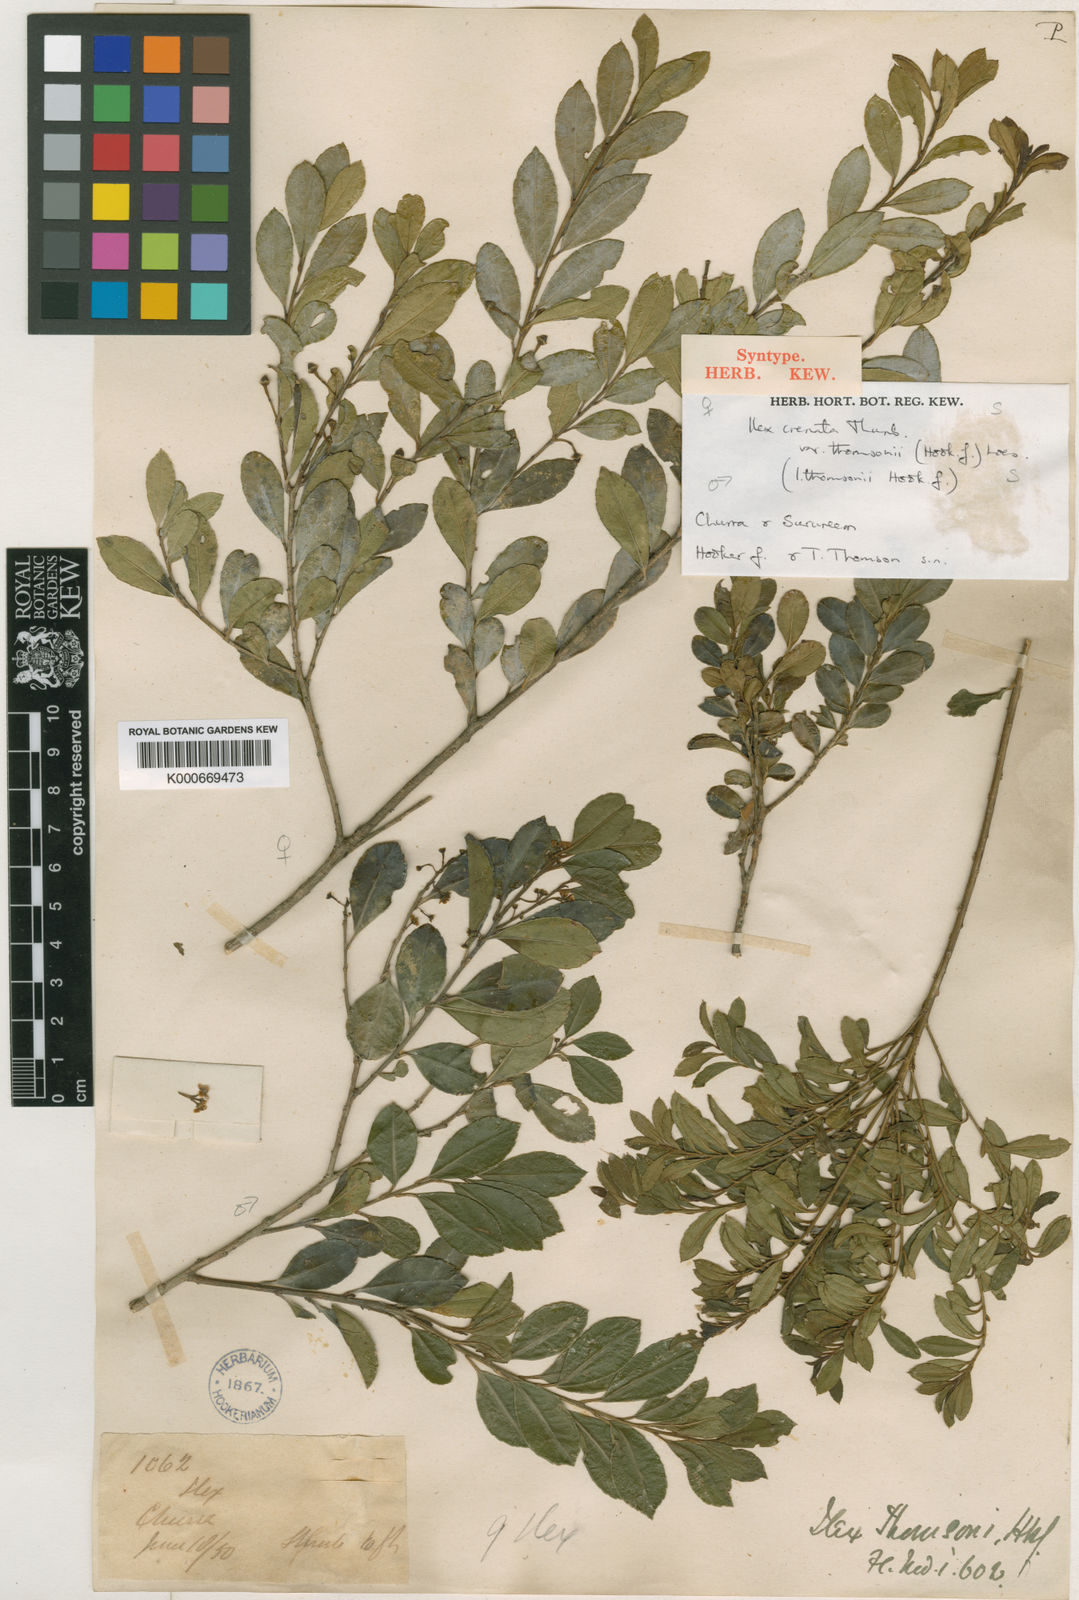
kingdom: Plantae
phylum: Tracheophyta
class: Magnoliopsida
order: Aquifoliales
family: Aquifoliaceae
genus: Ilex
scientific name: Ilex crenata
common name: Japanese holly
